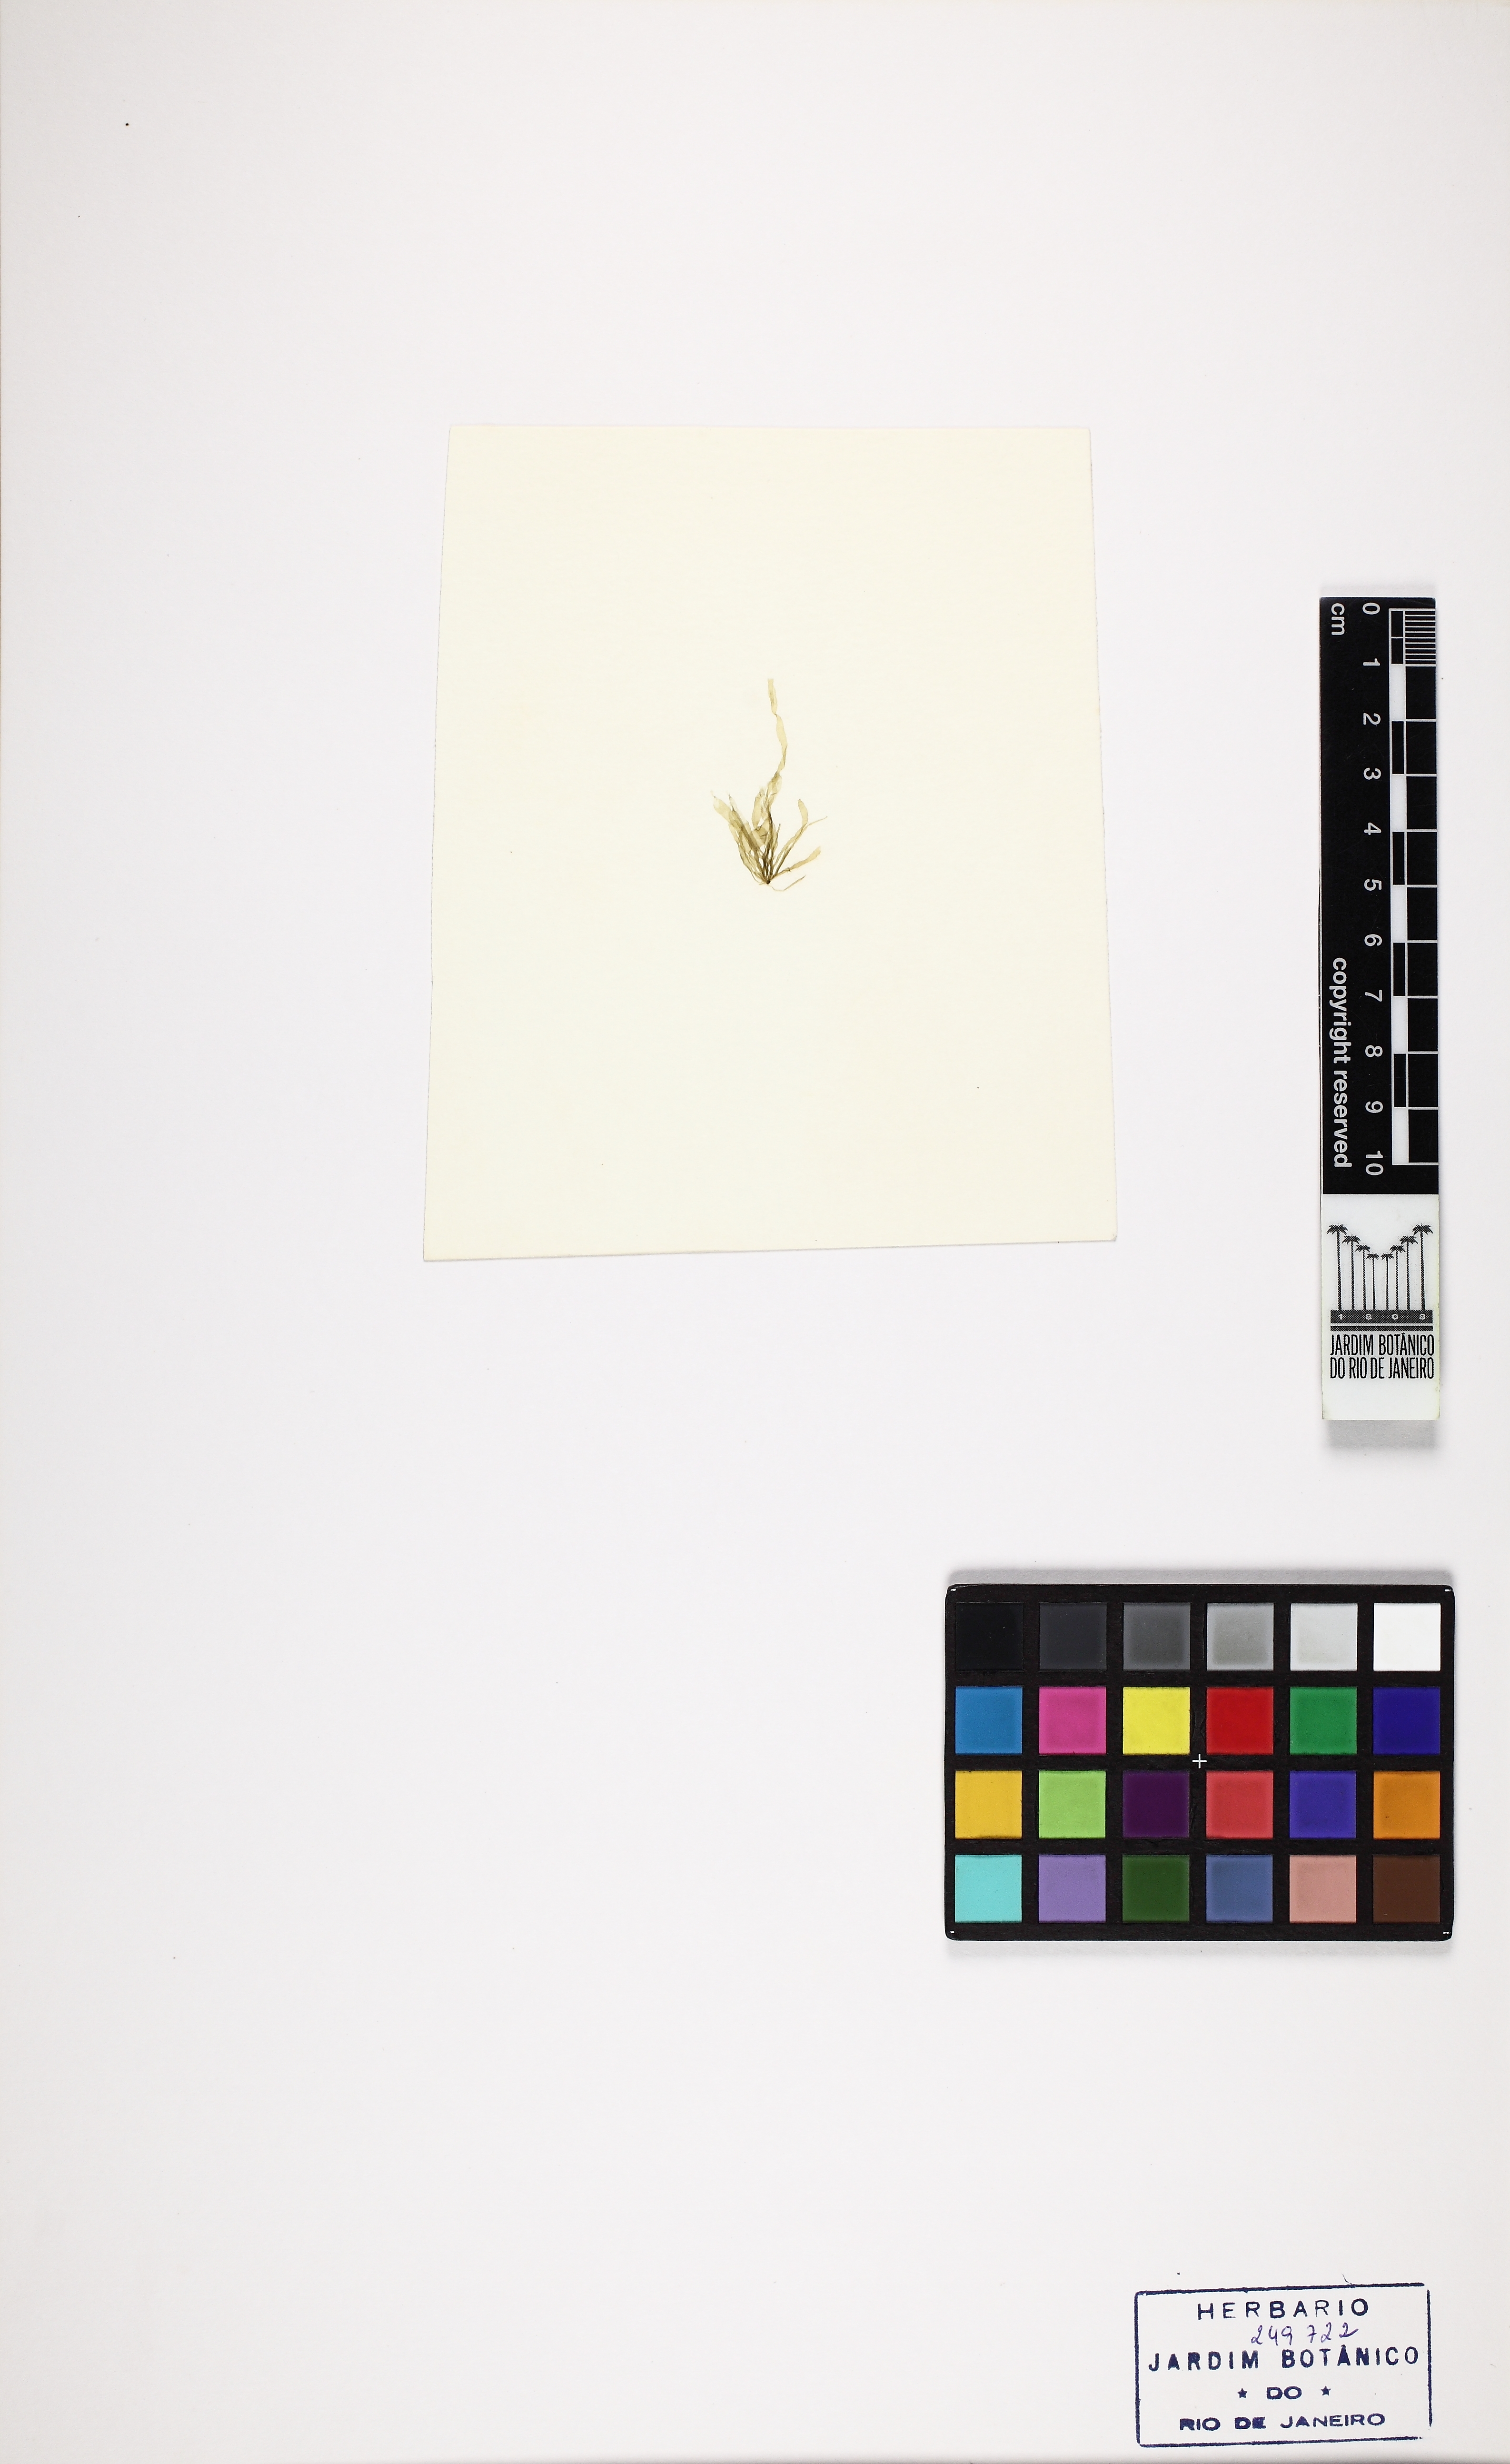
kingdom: Plantae
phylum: Chlorophyta
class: Ulvophyceae
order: Ulvales
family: Ulvaceae
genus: Ulva
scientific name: Ulva flexuosa
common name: Flexuous gutweed
